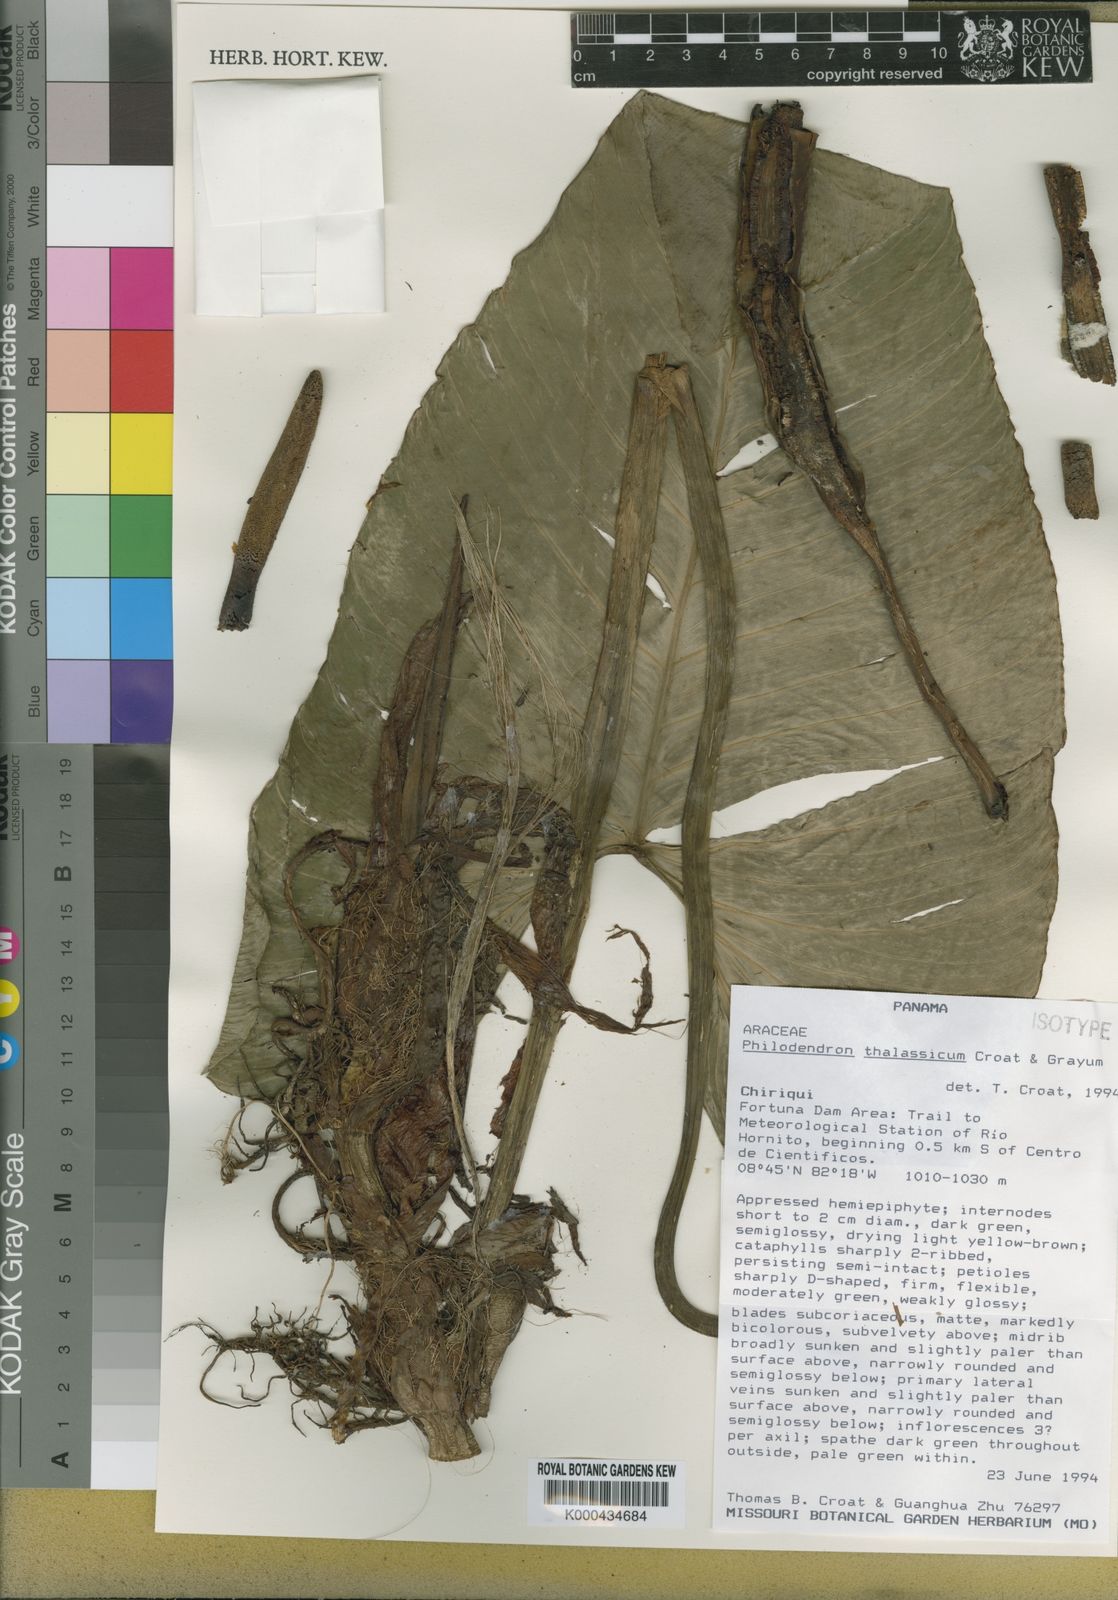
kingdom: Plantae
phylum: Tracheophyta
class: Liliopsida
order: Alismatales
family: Araceae
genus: Philodendron
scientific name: Philodendron thalassicum
